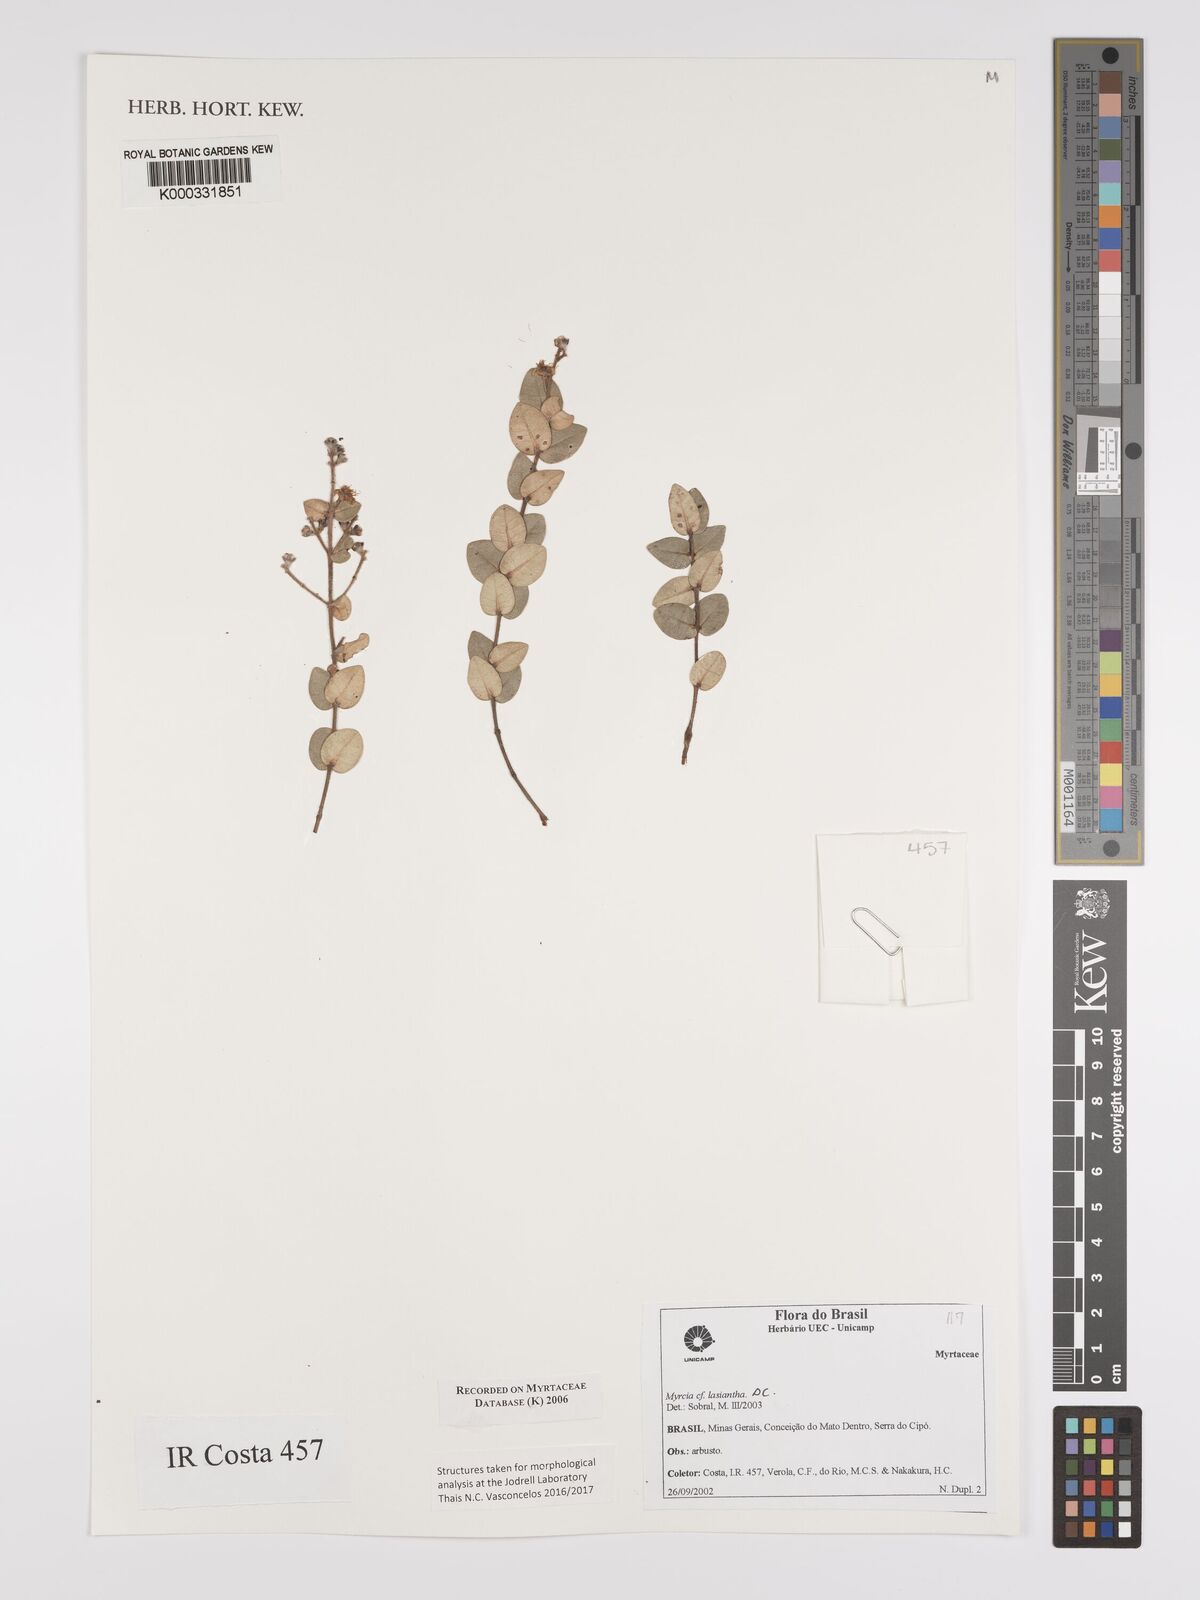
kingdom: Plantae
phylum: Tracheophyta
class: Magnoliopsida
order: Myrtales
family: Myrtaceae
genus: Myrcia
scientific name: Myrcia
